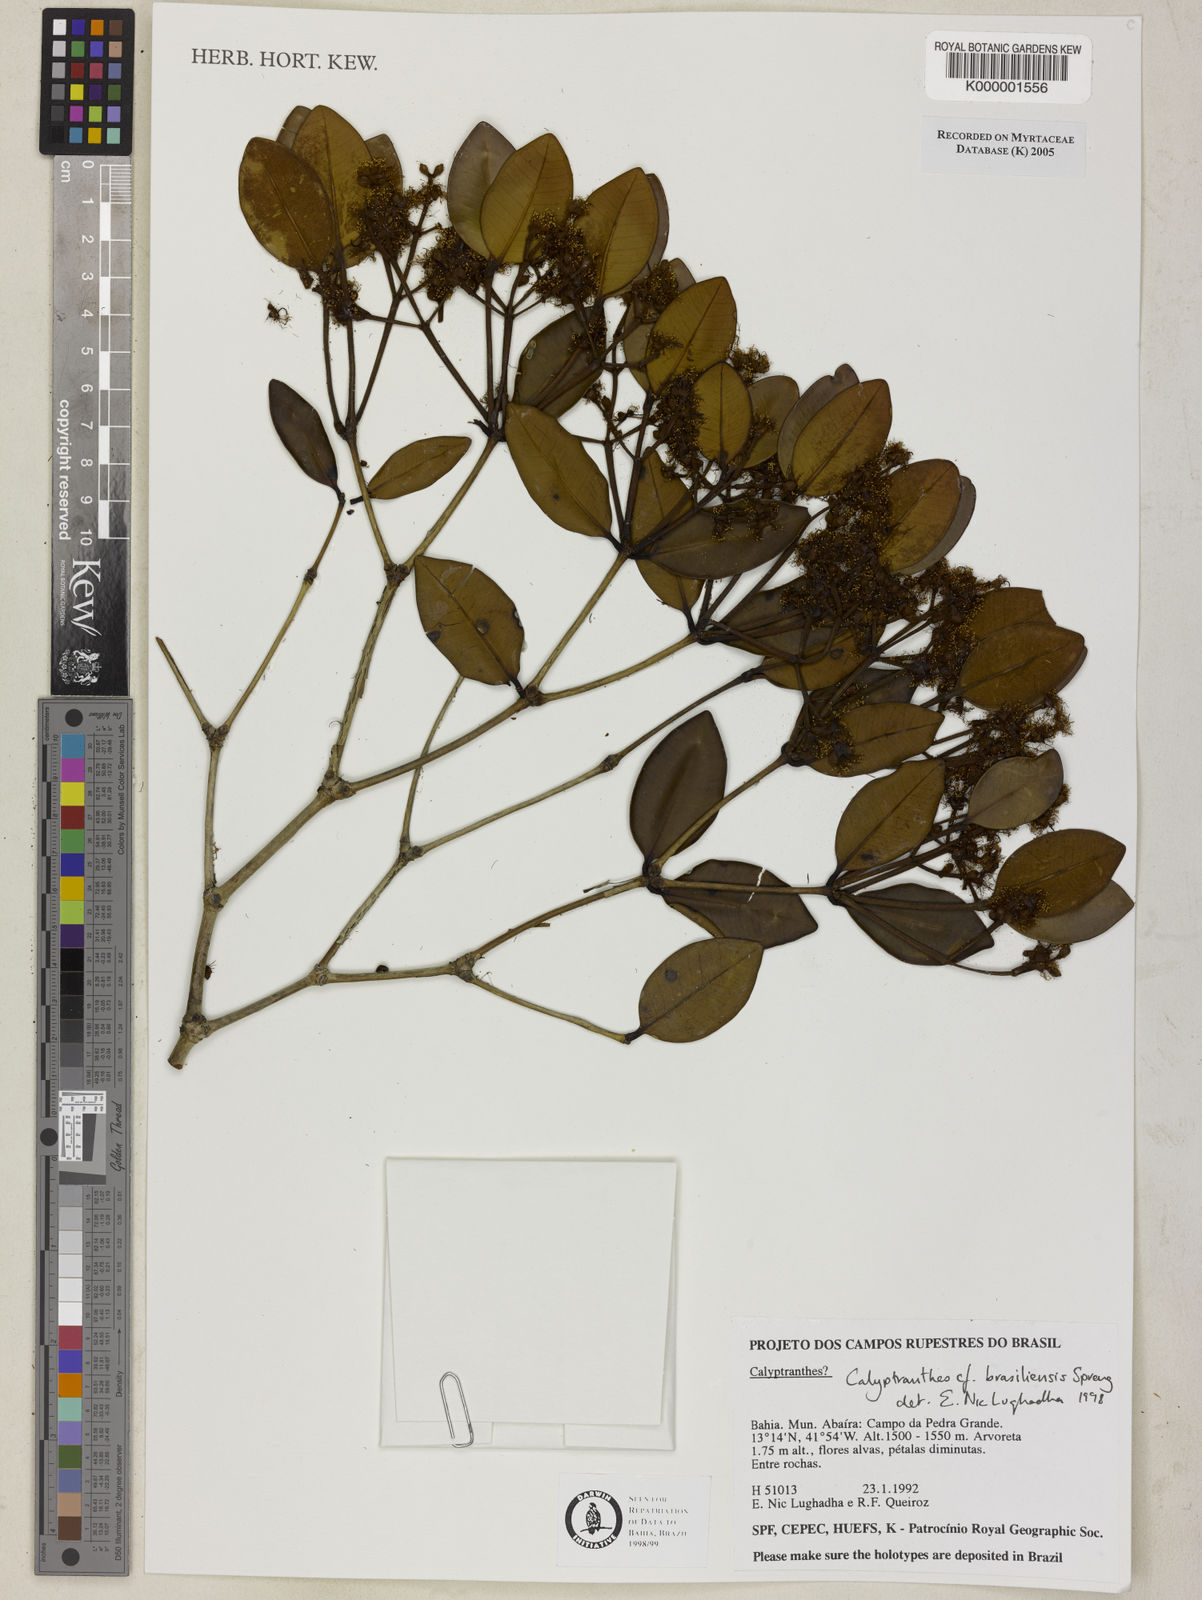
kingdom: Plantae
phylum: Tracheophyta
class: Magnoliopsida
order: Myrtales
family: Myrtaceae
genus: Myrcia
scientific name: Myrcia neobrasiliensis
